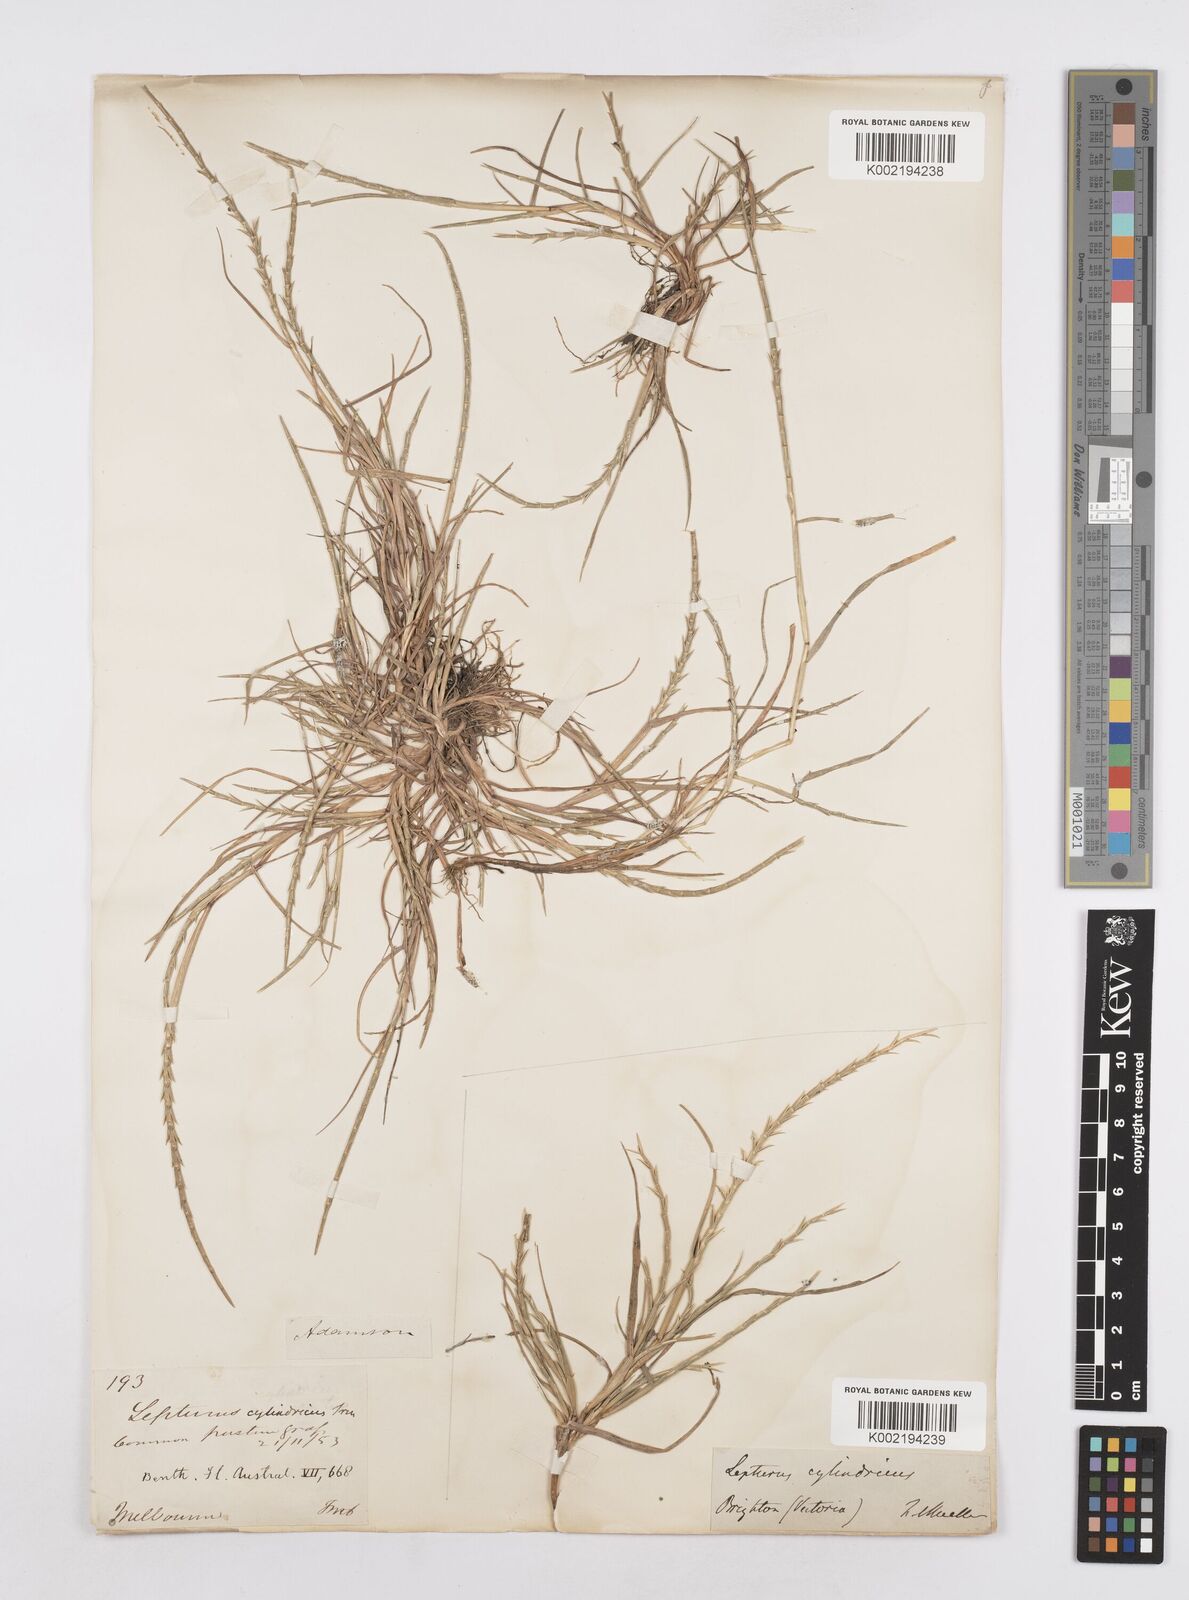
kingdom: Plantae
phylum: Tracheophyta
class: Liliopsida
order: Poales
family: Poaceae
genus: Parapholis
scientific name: Parapholis cylindrica
